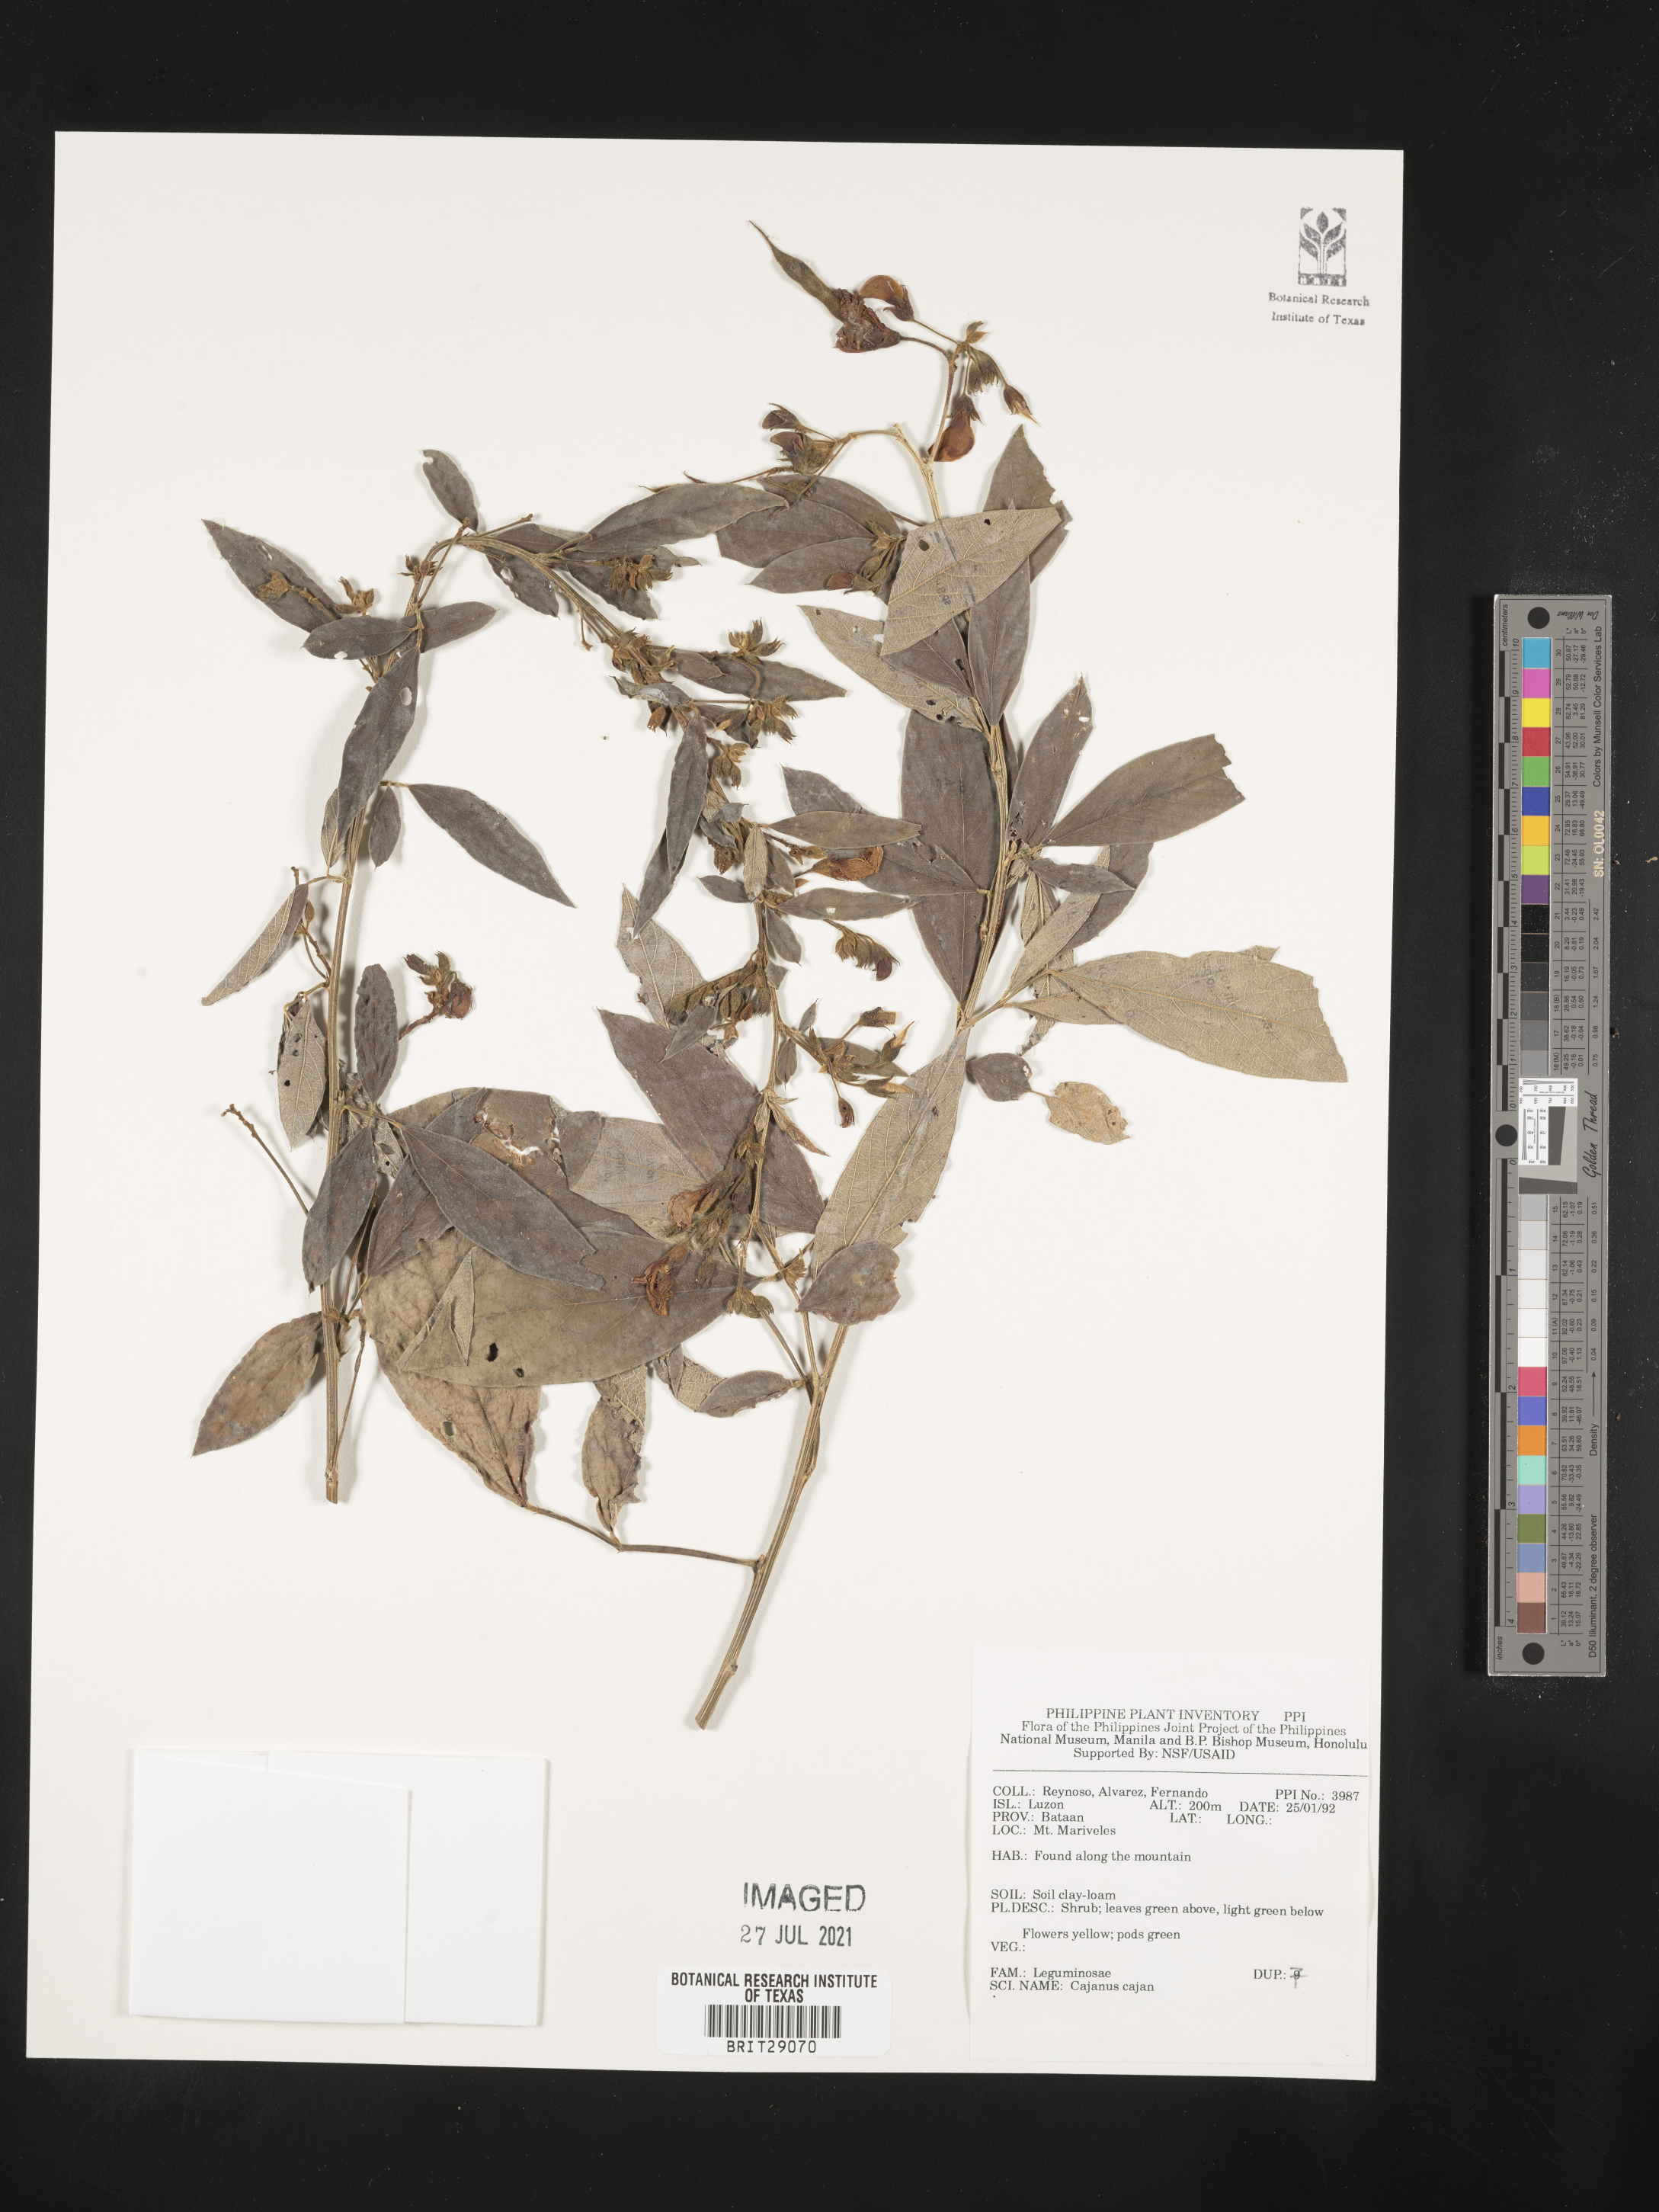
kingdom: Plantae
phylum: Tracheophyta
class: Magnoliopsida
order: Fabales
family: Fabaceae
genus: Cajanus
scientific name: Cajanus cajan
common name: Pigeonpea
